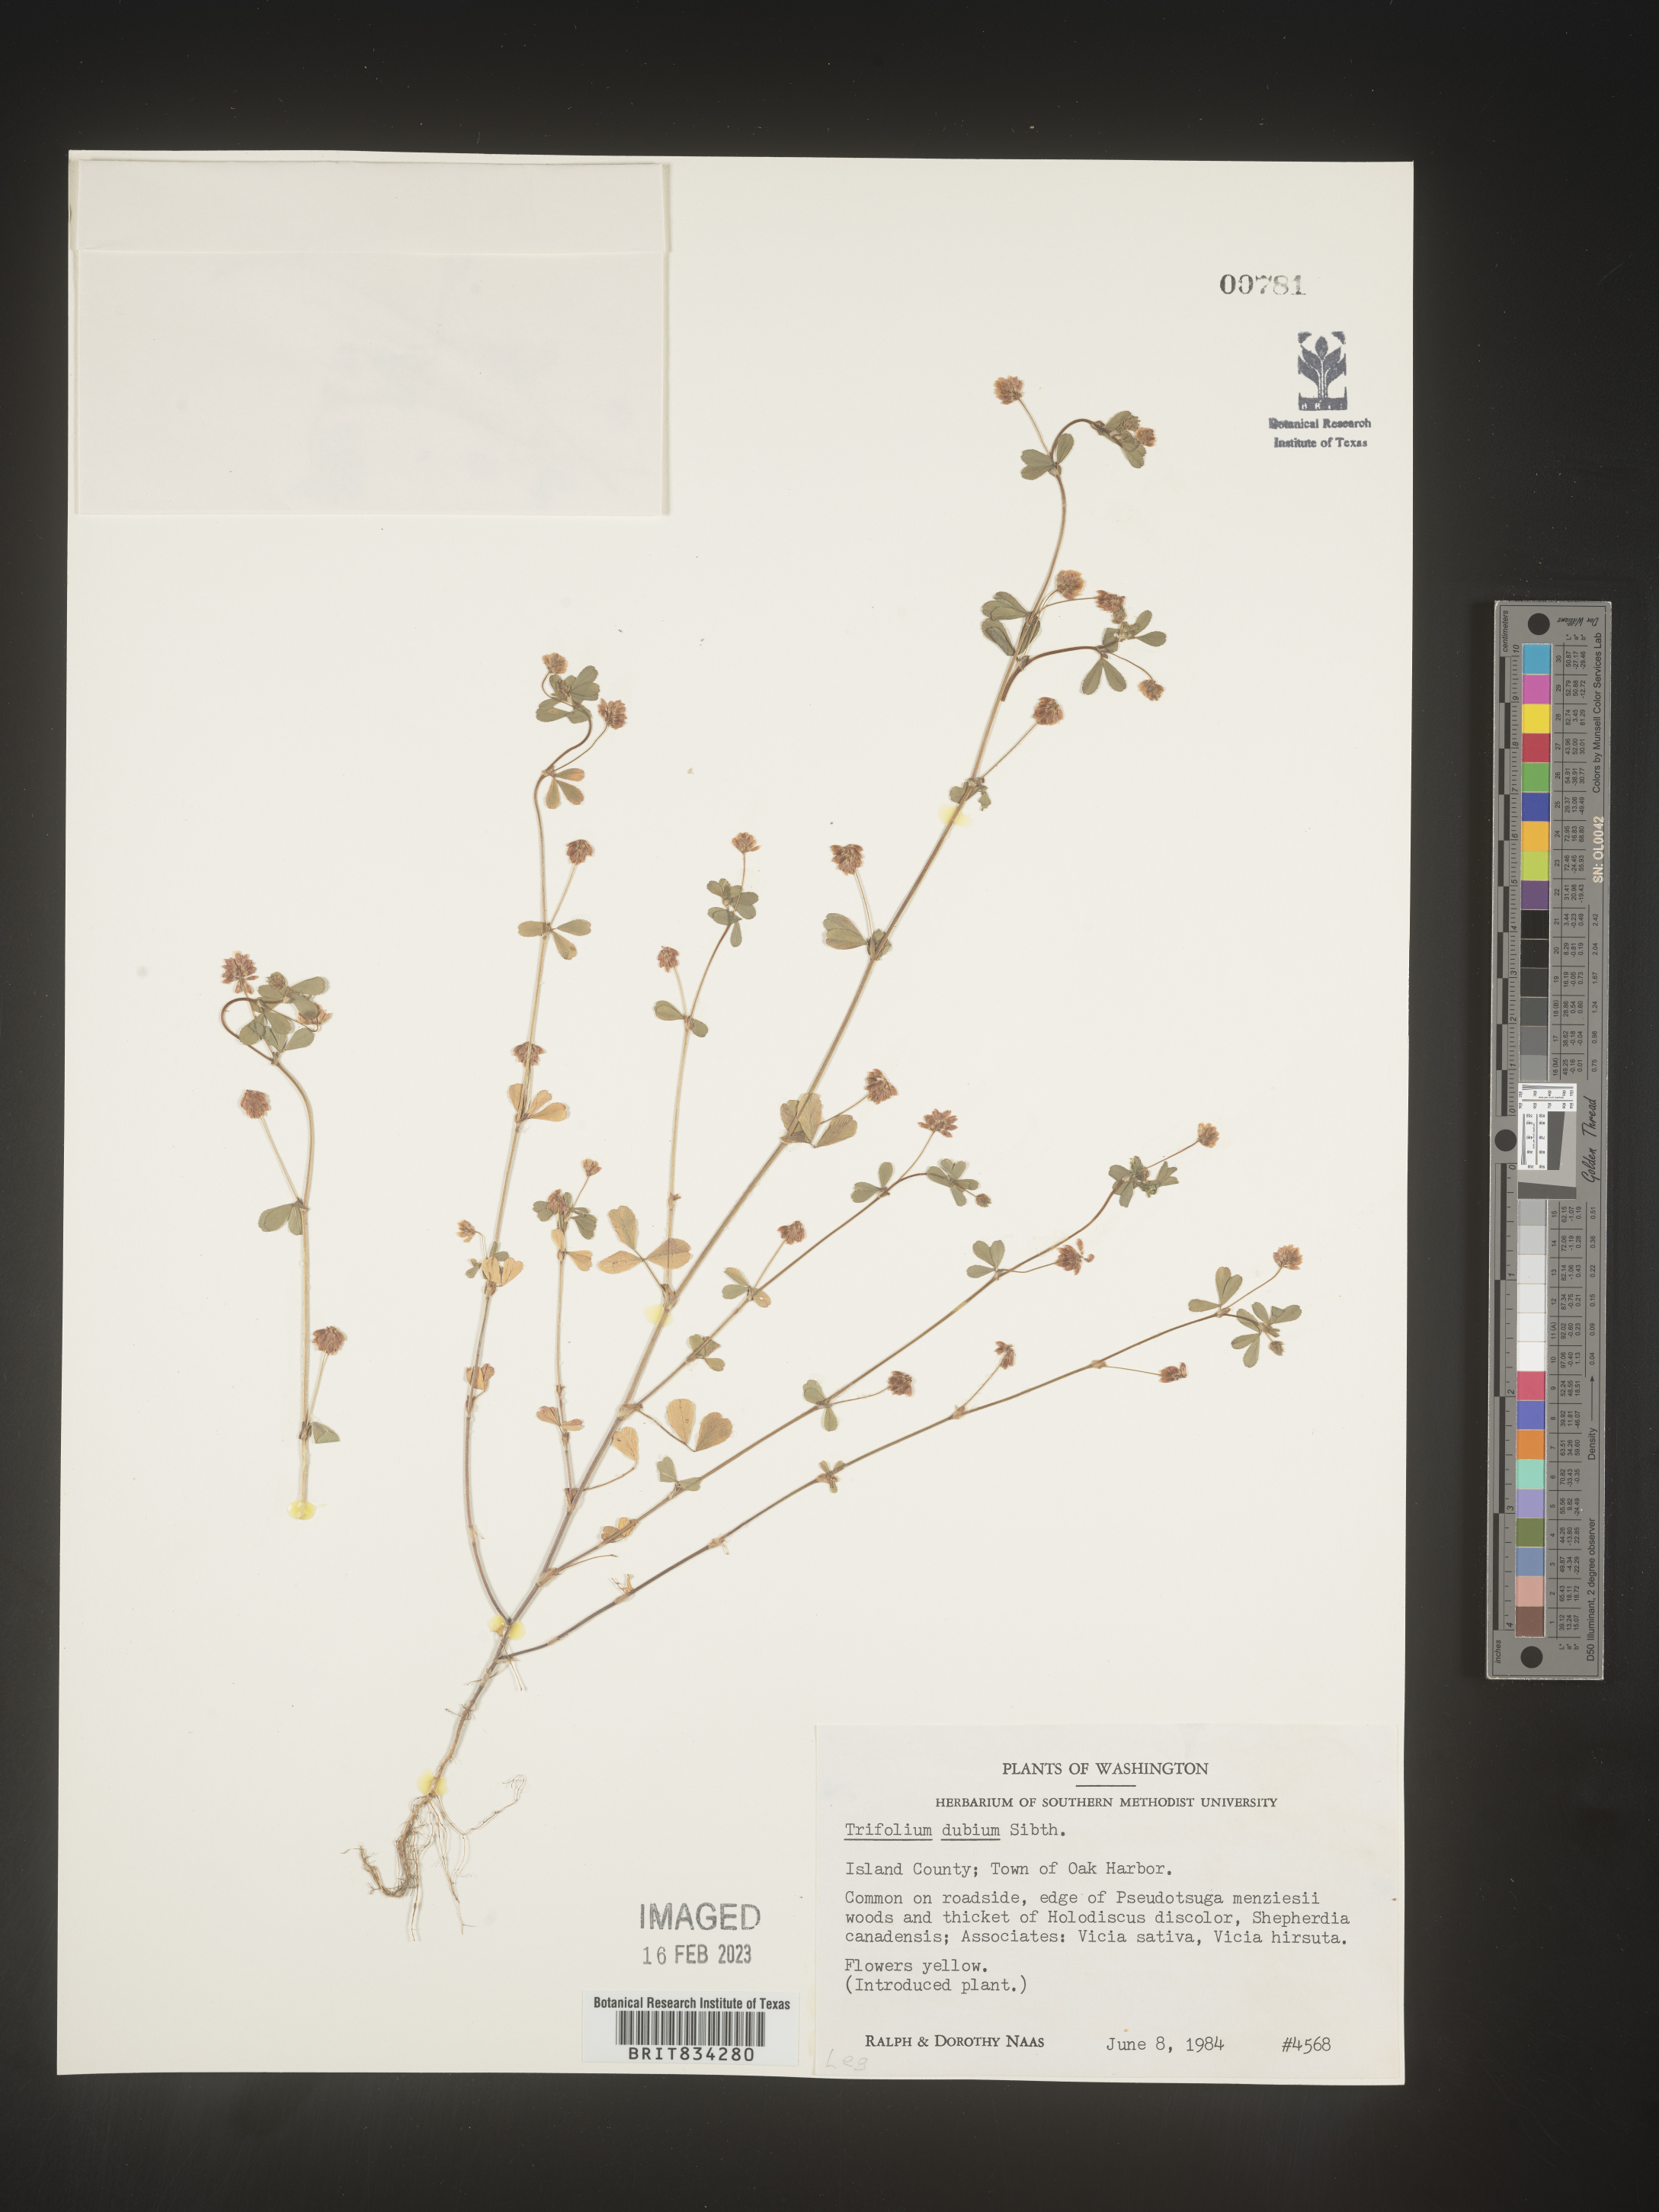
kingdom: Plantae
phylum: Tracheophyta
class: Magnoliopsida
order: Fabales
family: Fabaceae
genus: Trifolium
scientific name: Trifolium dubium
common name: Suckling clover
